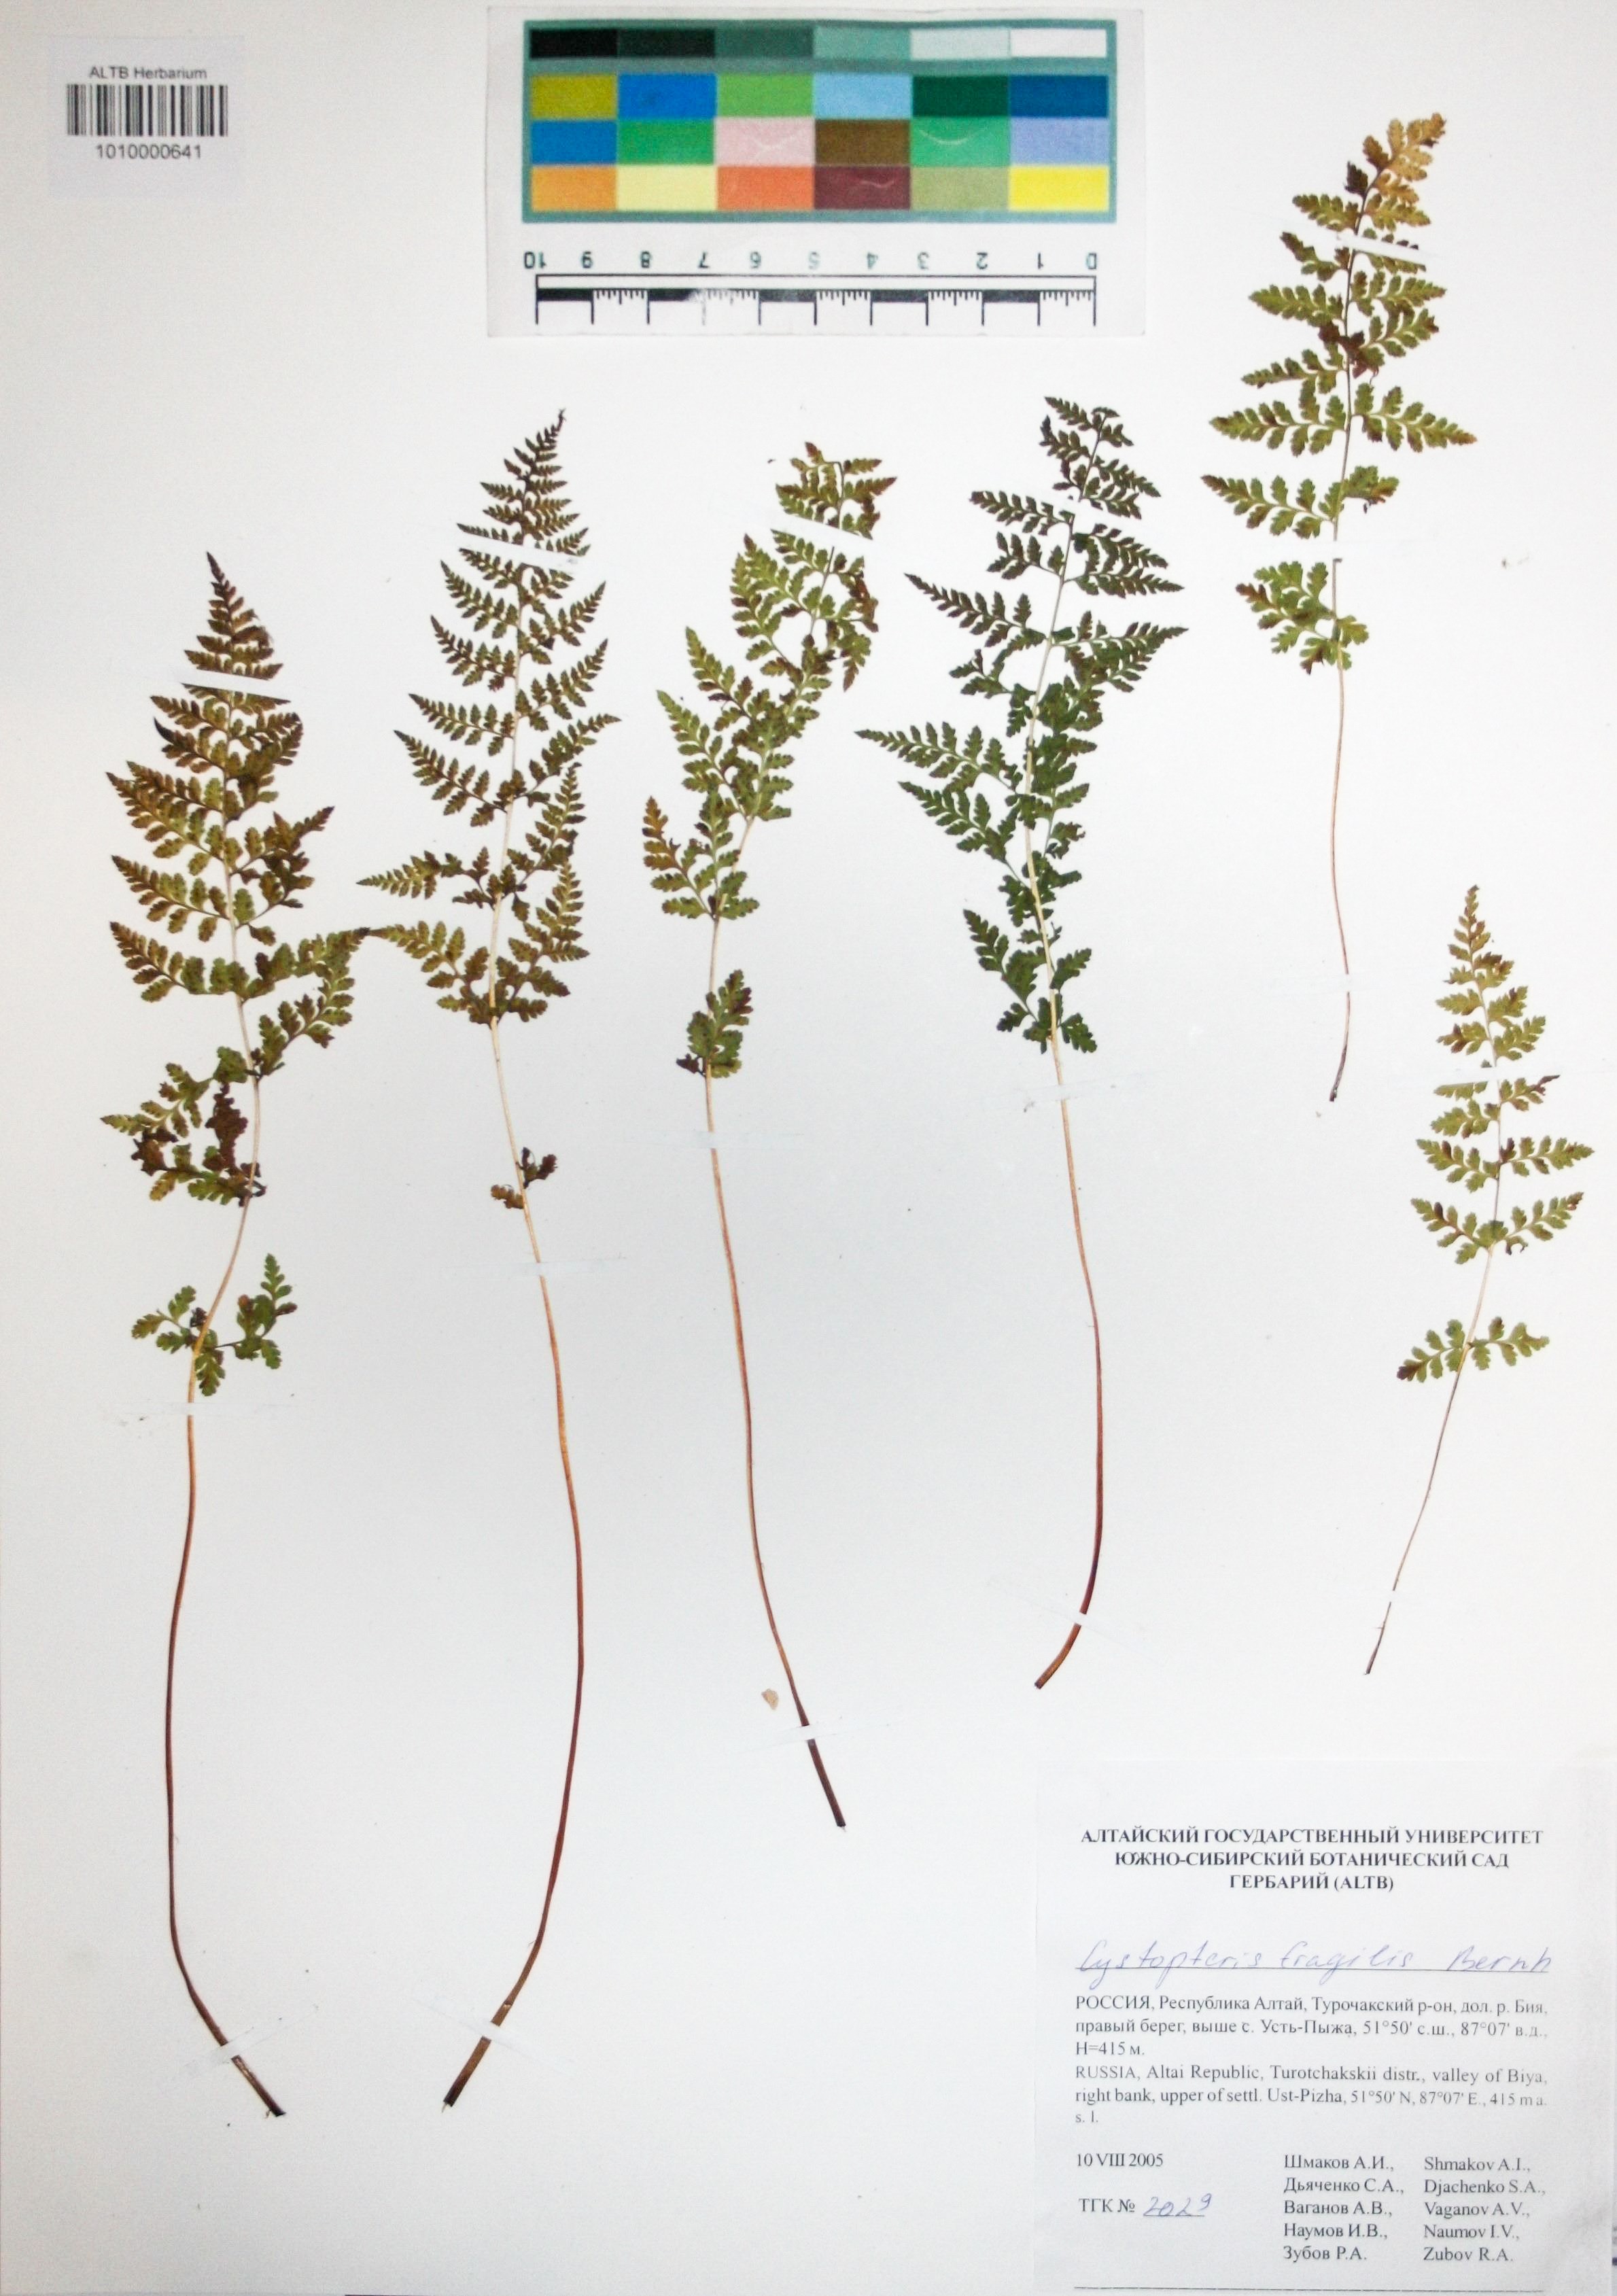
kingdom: Plantae
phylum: Tracheophyta
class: Polypodiopsida
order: Polypodiales
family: Cystopteridaceae
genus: Cystopteris
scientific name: Cystopteris fragilis
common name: Brittle bladder fern
